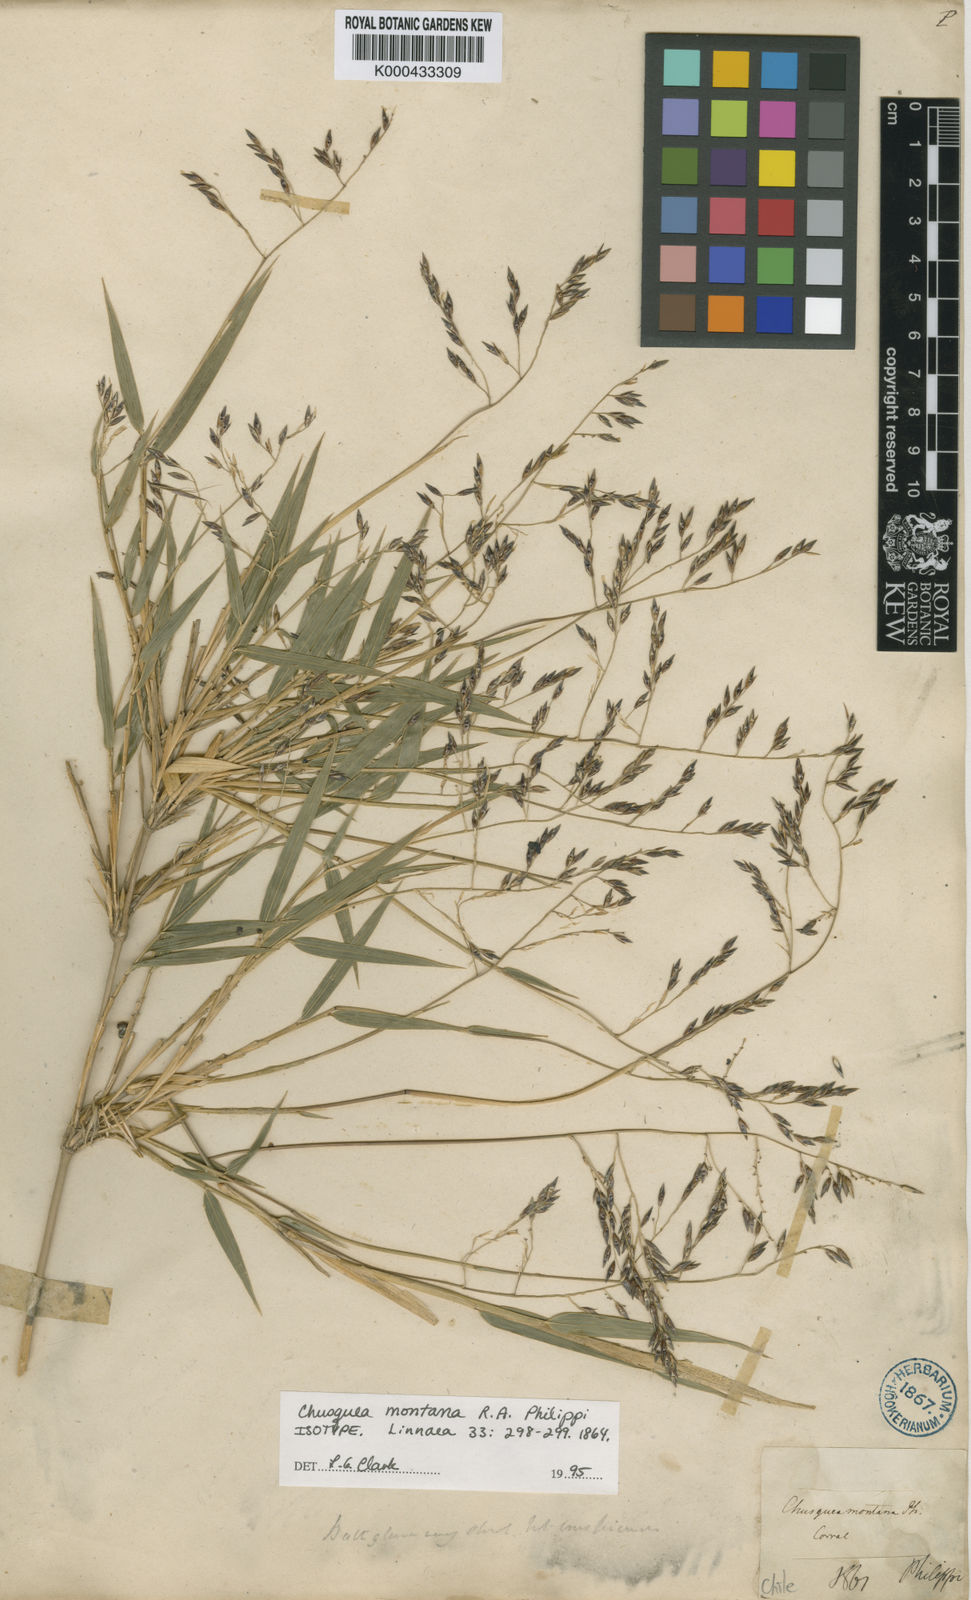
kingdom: Plantae
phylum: Tracheophyta
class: Liliopsida
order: Poales
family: Poaceae
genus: Chusquea
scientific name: Chusquea montana
